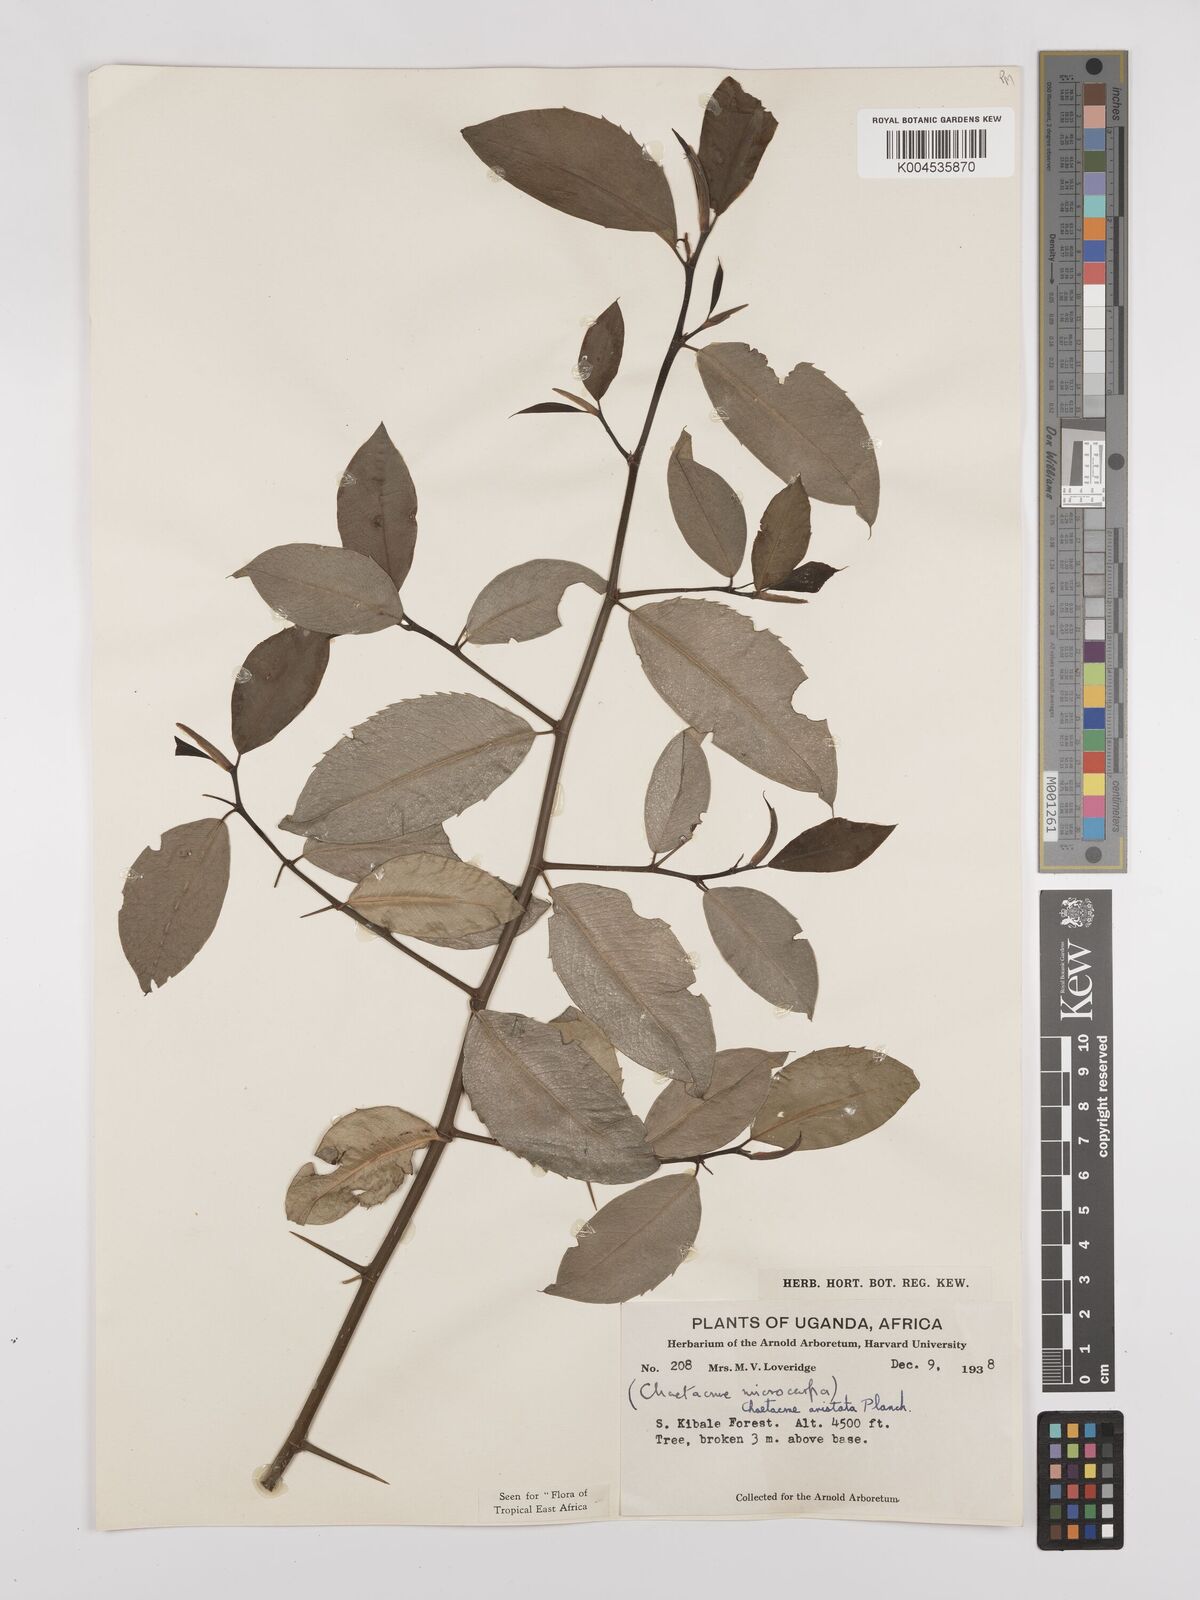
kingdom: Plantae
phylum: Tracheophyta
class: Magnoliopsida
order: Rosales
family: Cannabaceae
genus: Chaetachme
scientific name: Chaetachme aristata
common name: Thorny elm
